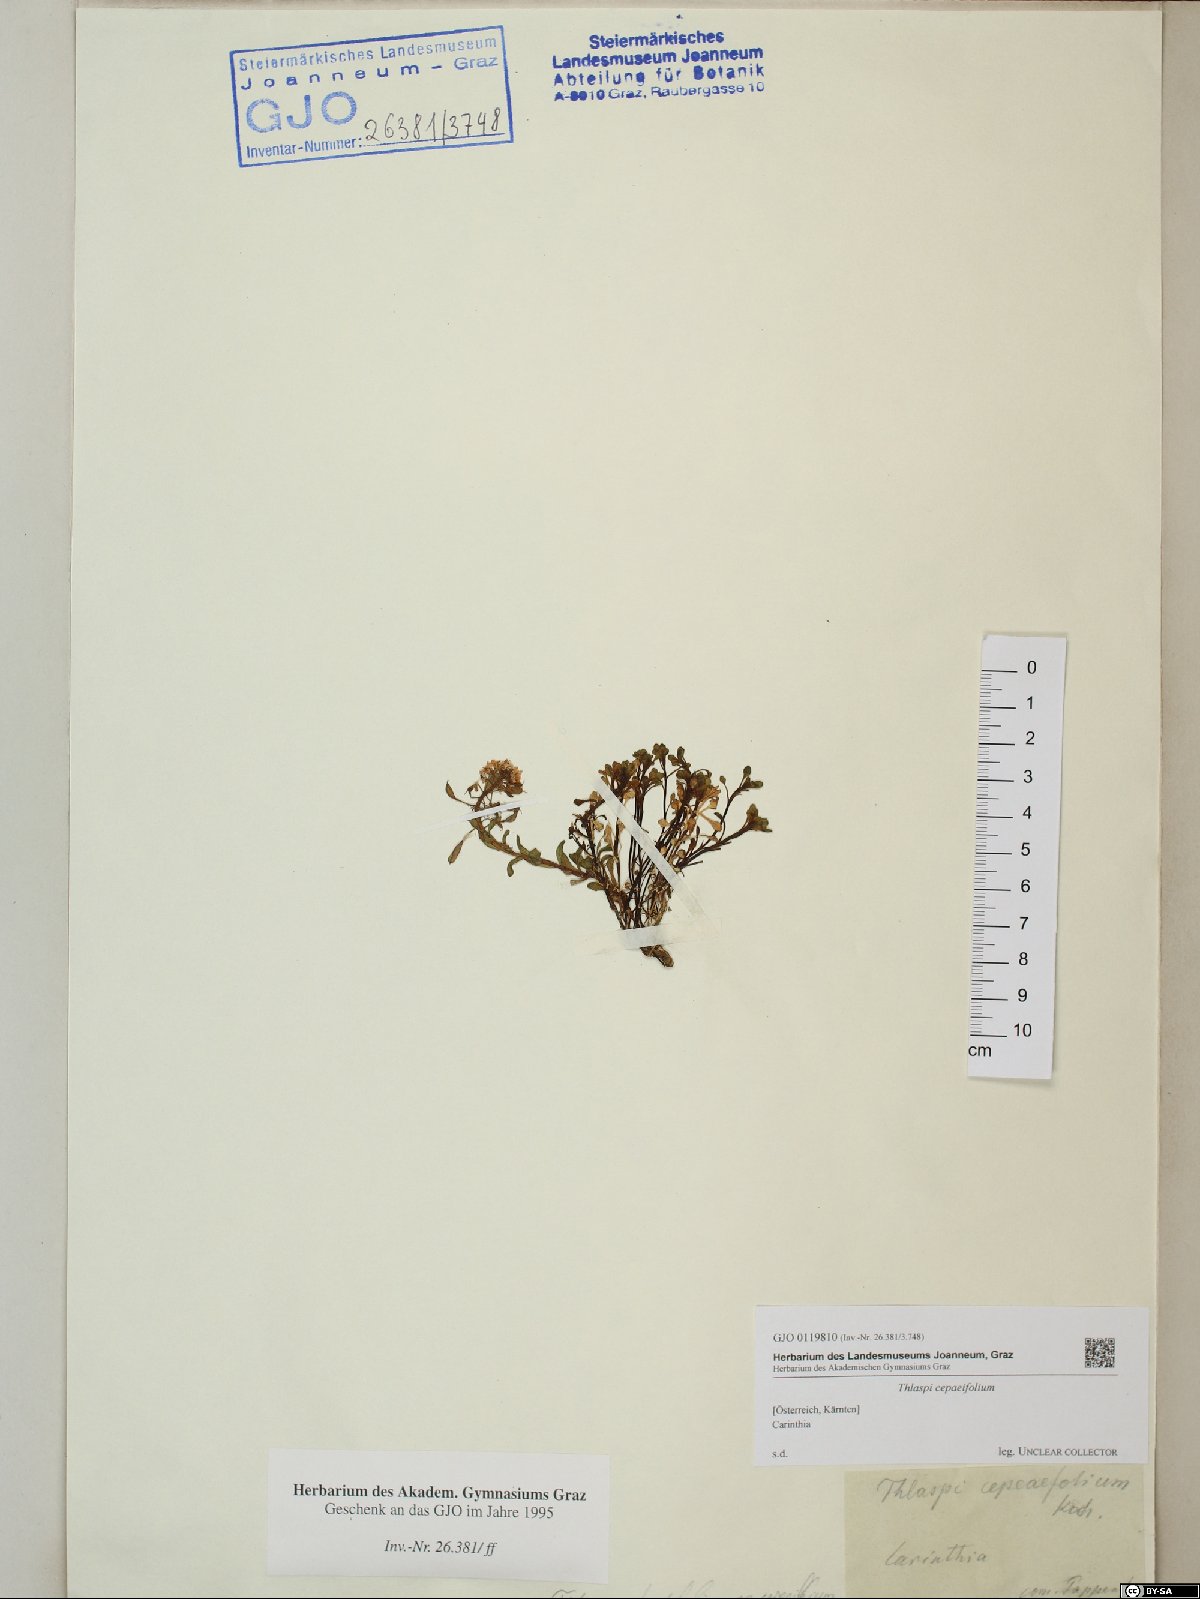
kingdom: Plantae
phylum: Tracheophyta
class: Magnoliopsida
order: Brassicales
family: Brassicaceae
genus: Noccaea
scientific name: Noccaea cepaeifolia
